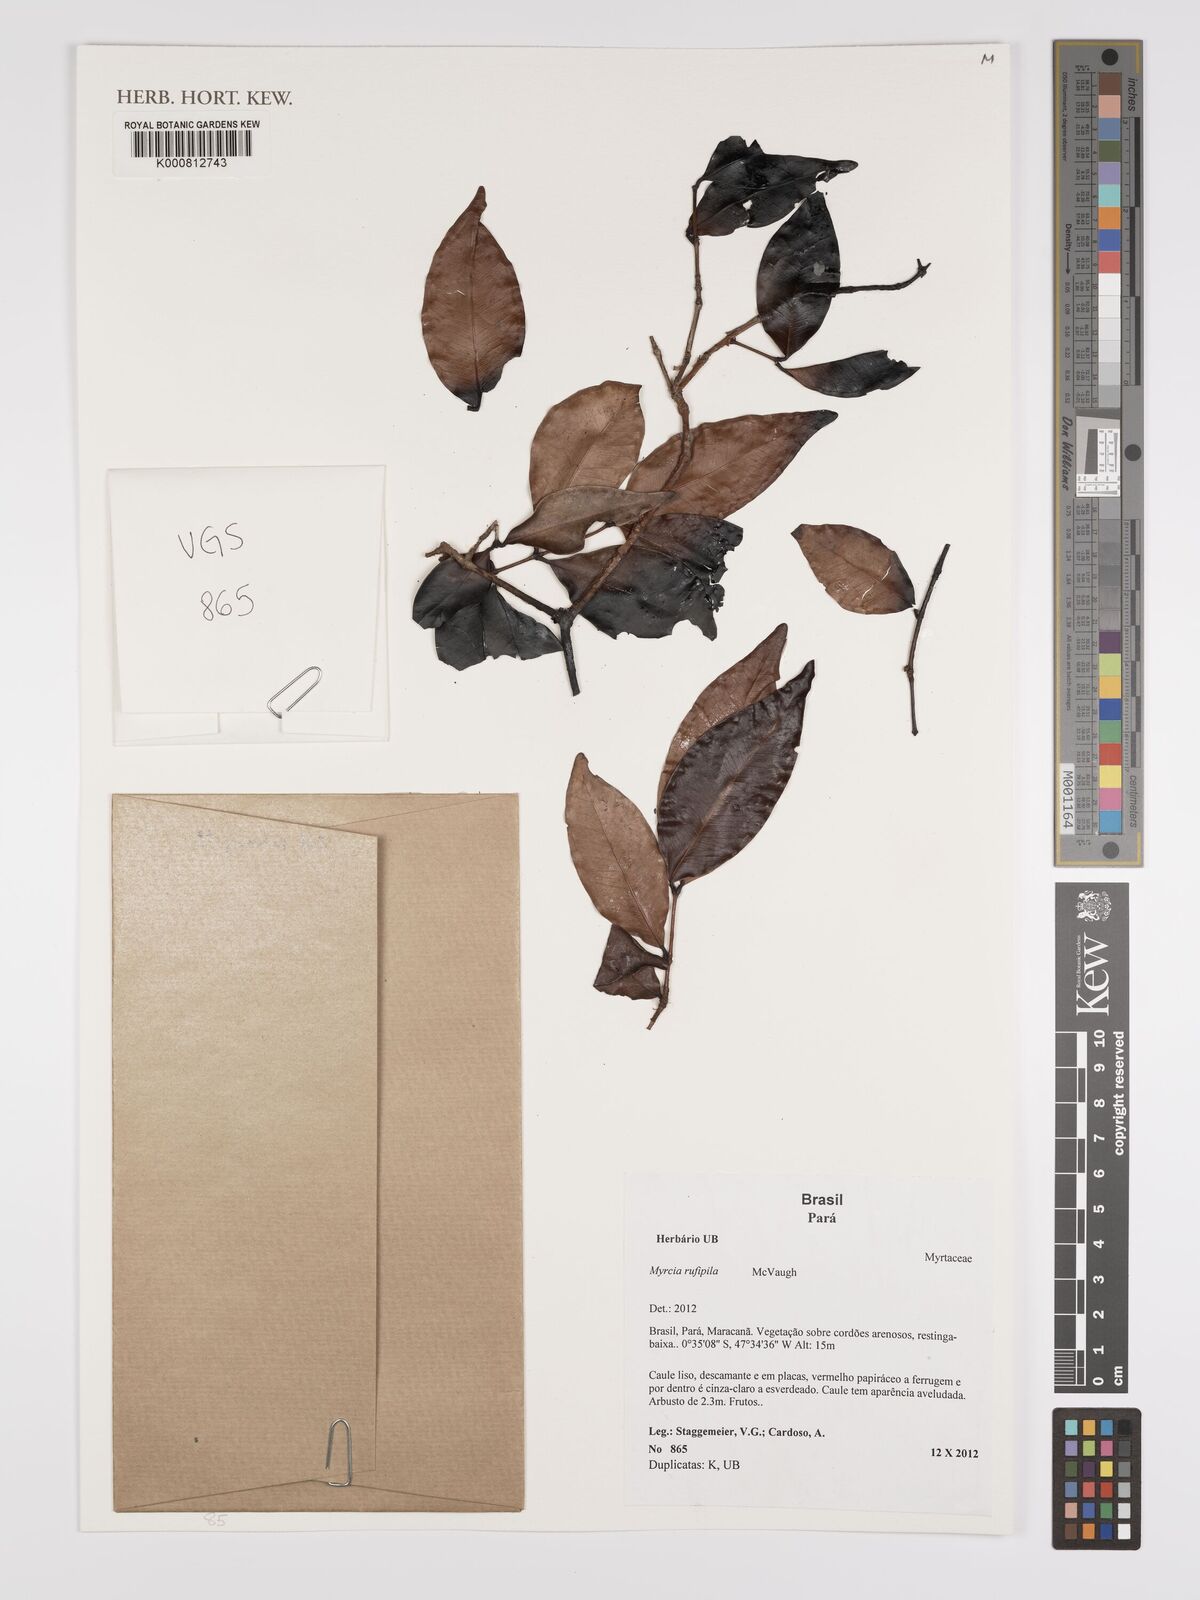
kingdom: Plantae
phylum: Tracheophyta
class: Magnoliopsida
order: Myrtales
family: Myrtaceae
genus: Myrcia
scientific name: Myrcia rufipila
